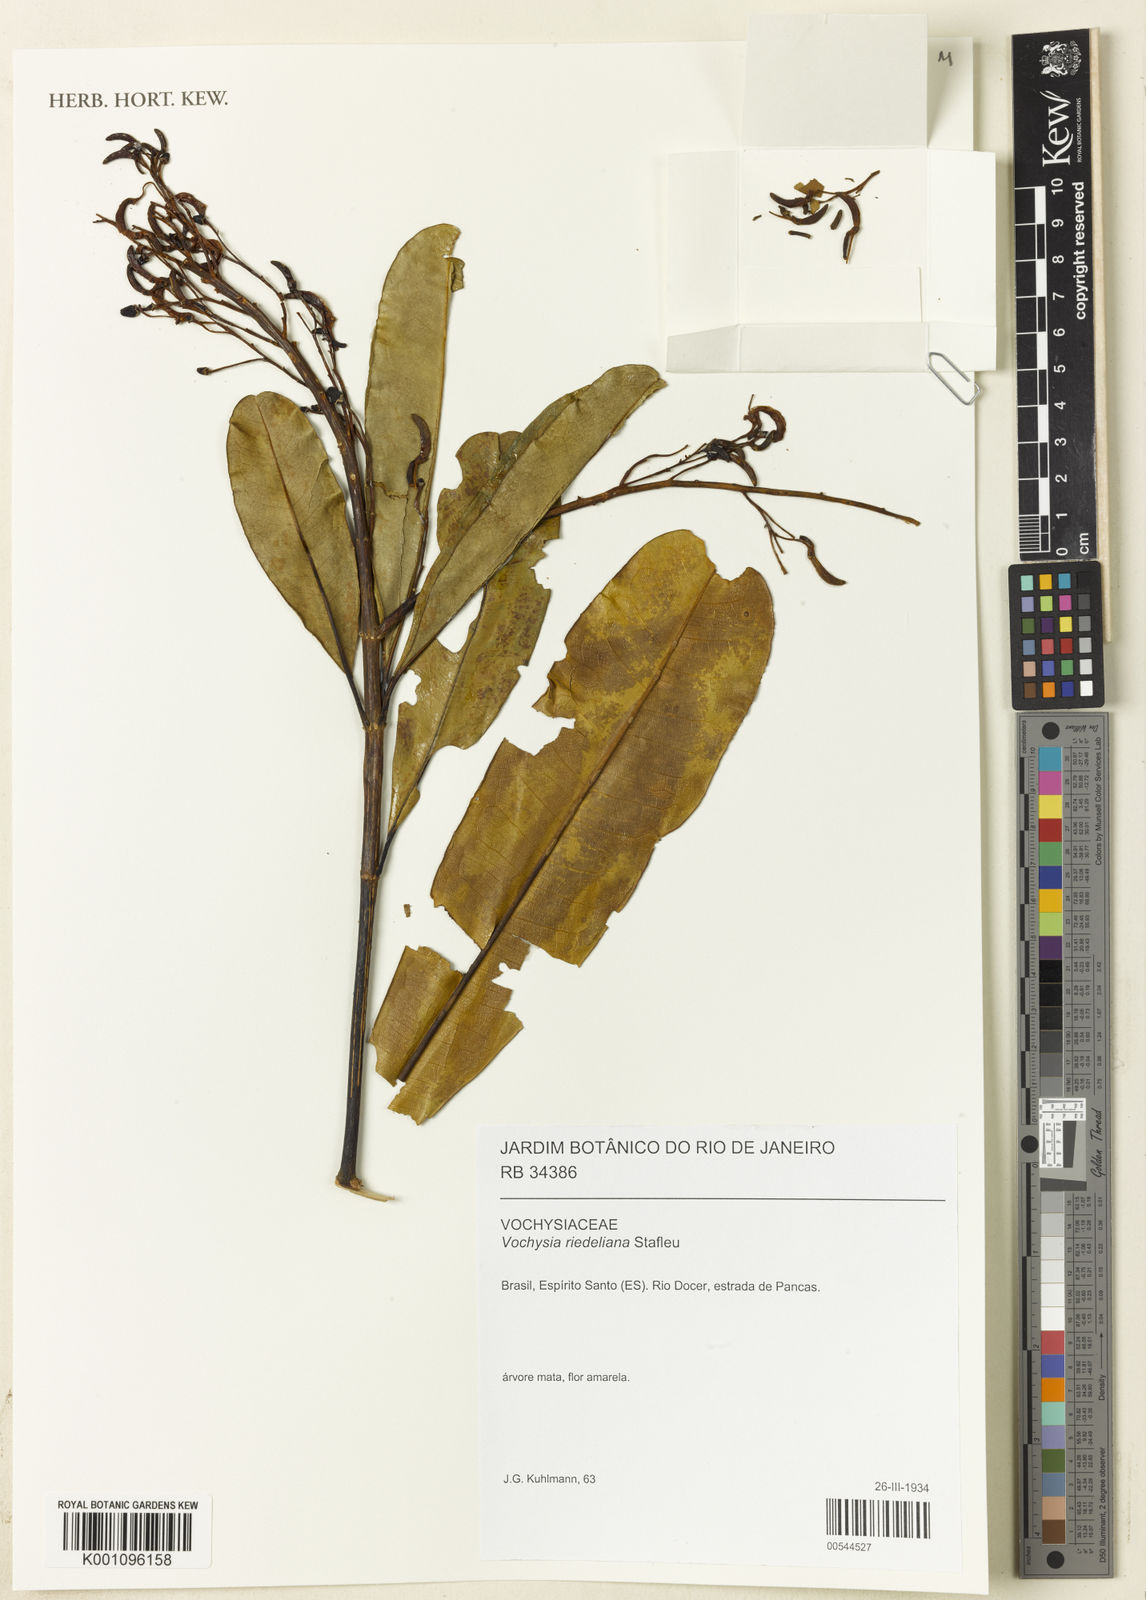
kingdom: Plantae
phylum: Tracheophyta
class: Magnoliopsida
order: Myrtales
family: Vochysiaceae
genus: Vochysia
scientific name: Vochysia riedeliana
